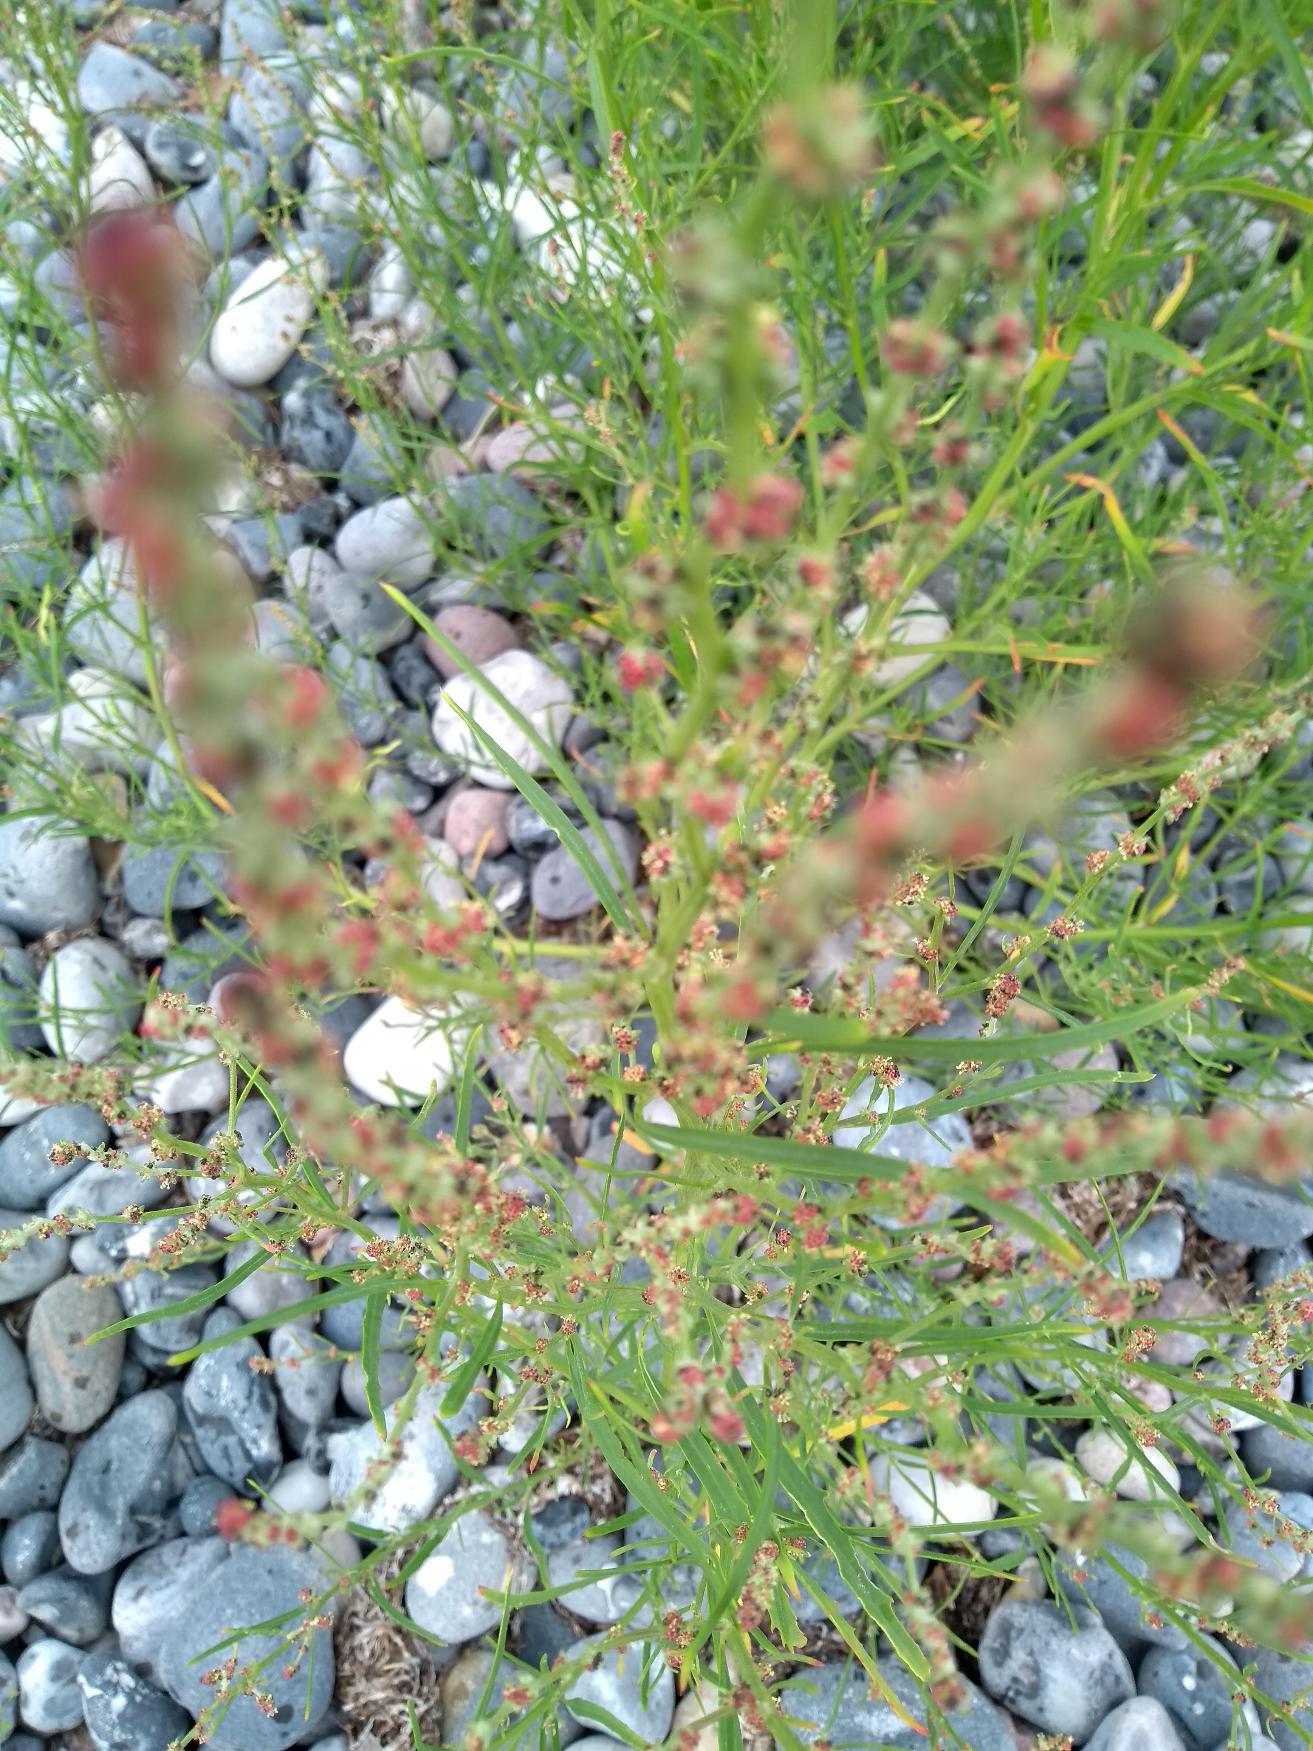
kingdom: Plantae
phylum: Tracheophyta
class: Magnoliopsida
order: Caryophyllales
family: Amaranthaceae
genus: Atriplex
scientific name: Atriplex littoralis
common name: Strand-mælde
